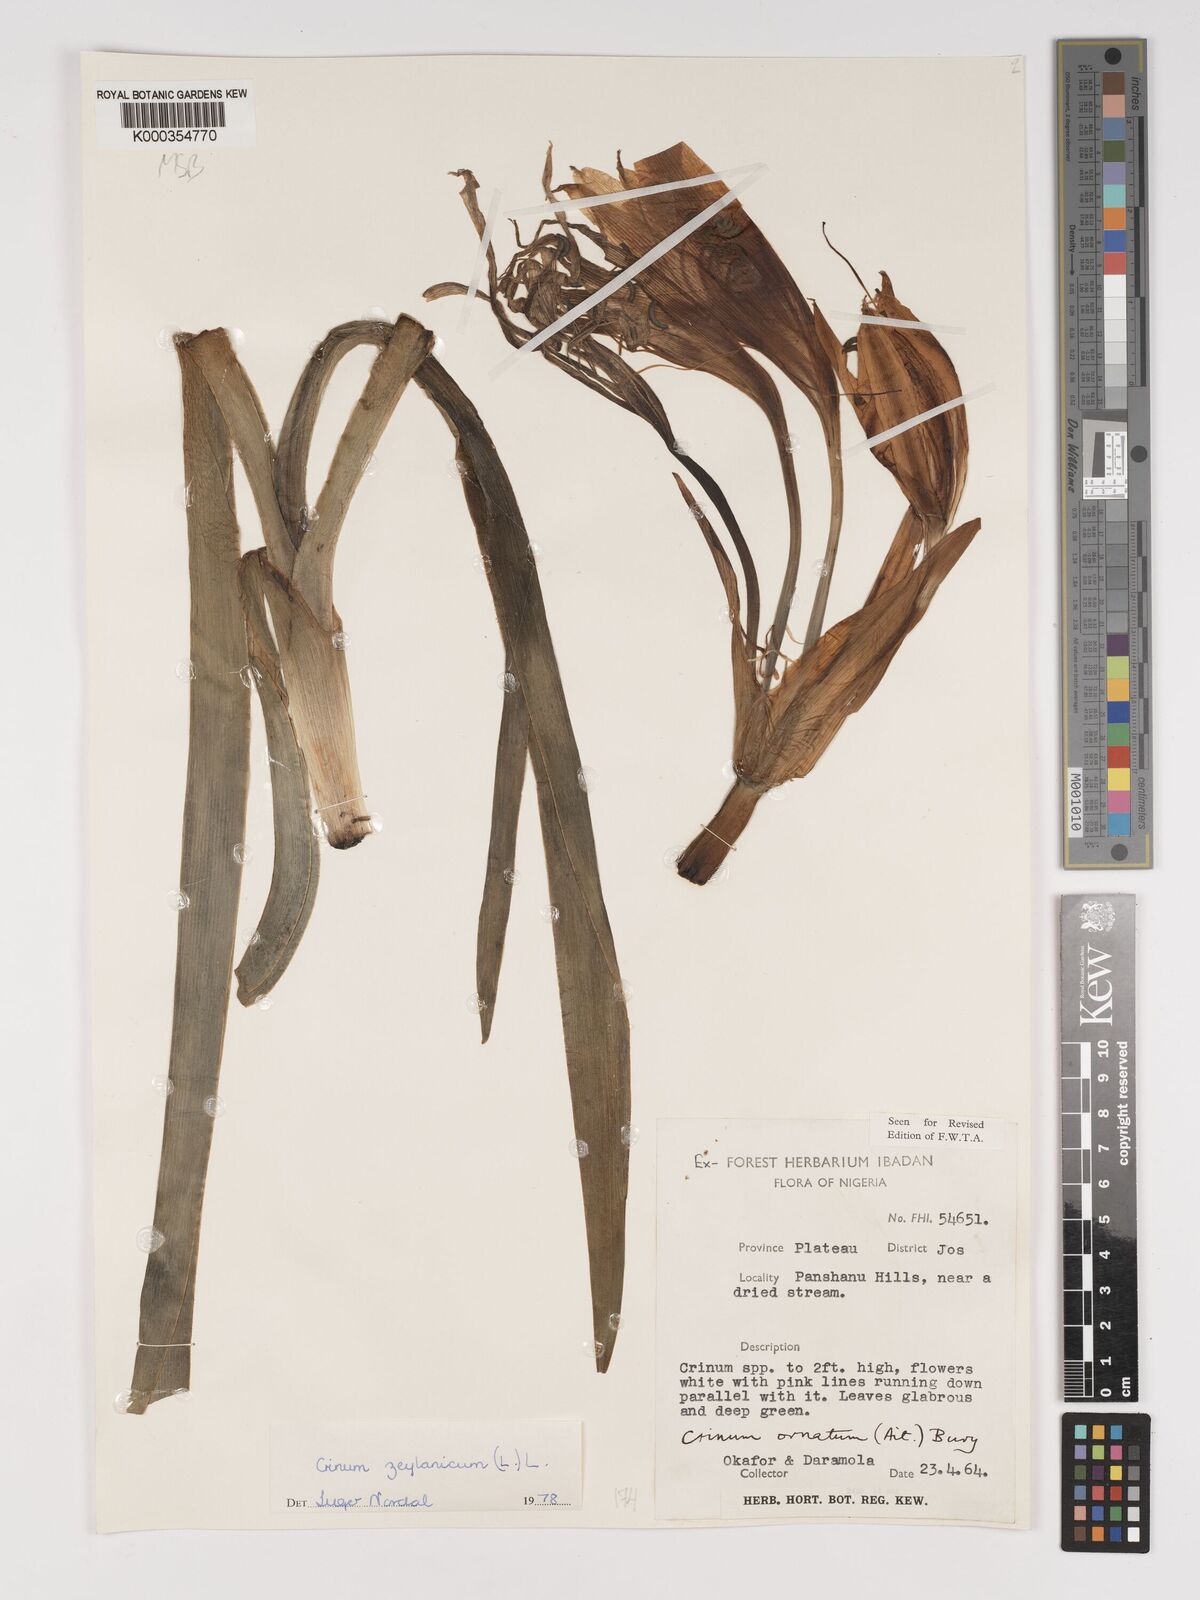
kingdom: Plantae
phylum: Tracheophyta
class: Liliopsida
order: Asparagales
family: Amaryllidaceae
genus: Crinum
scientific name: Crinum zeylanicum
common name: Ceylon swamplily
